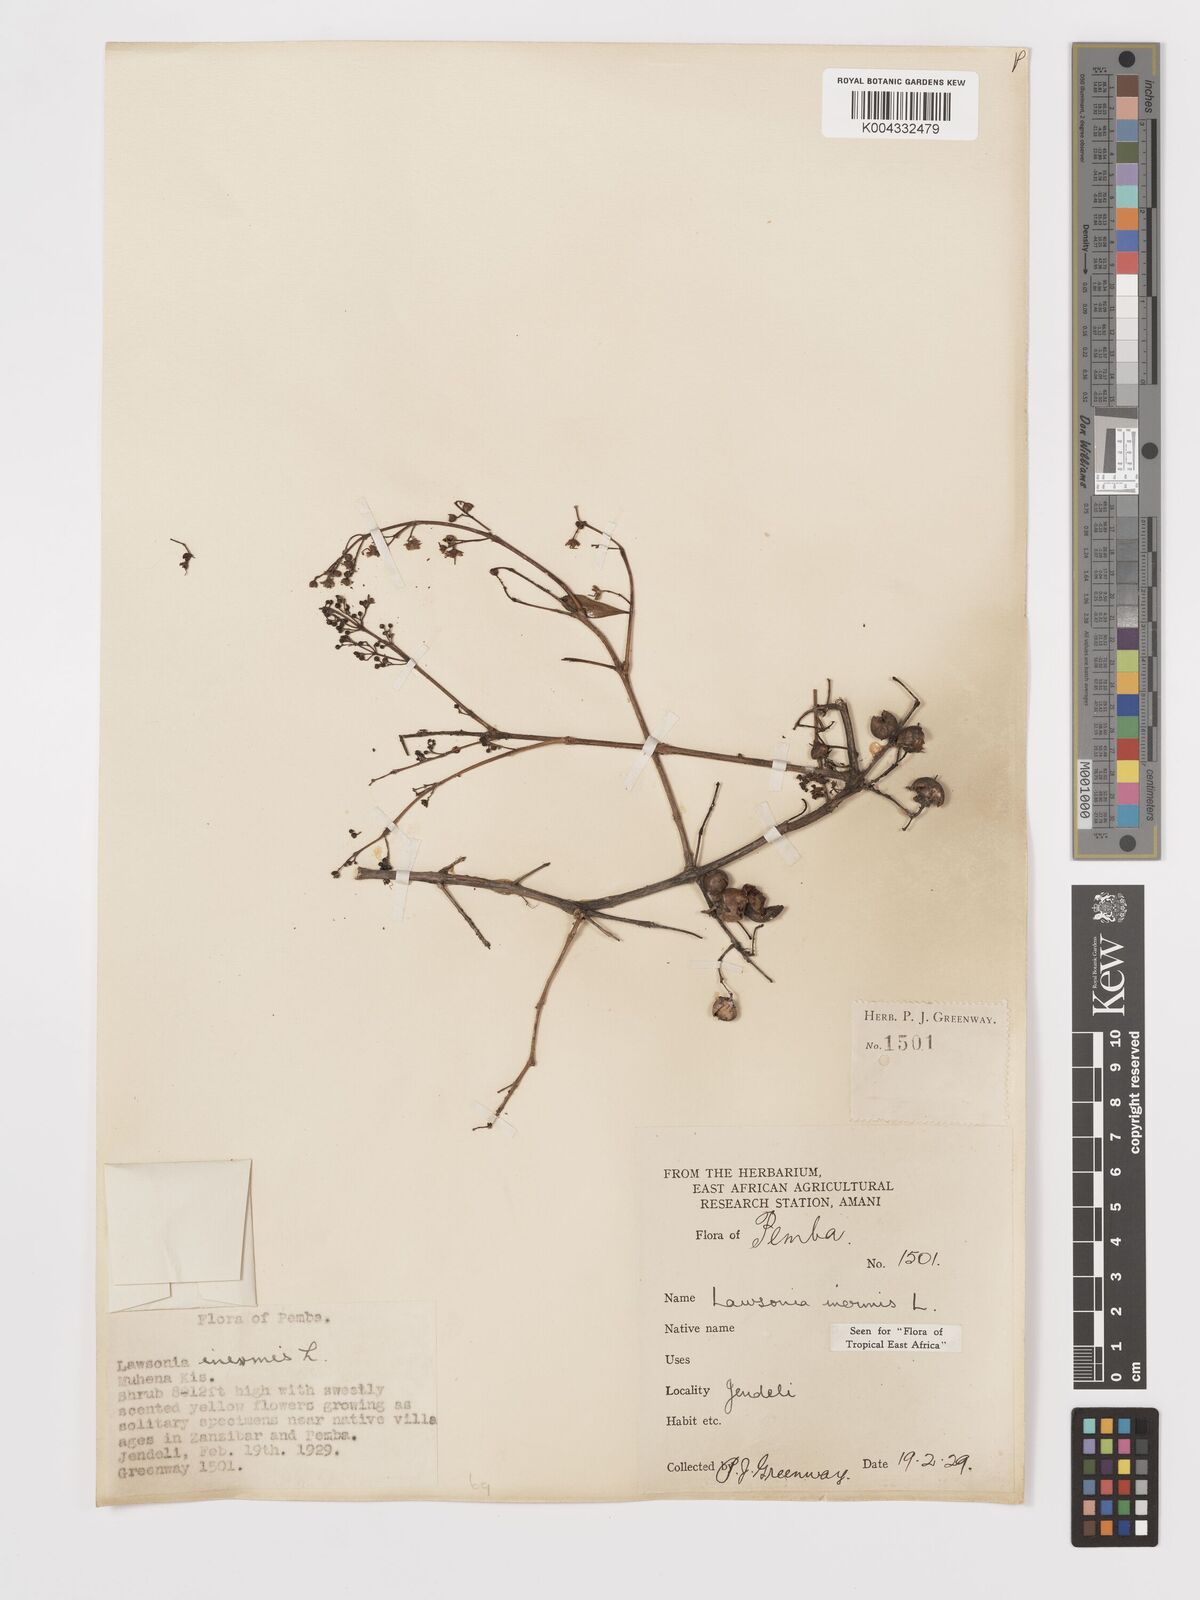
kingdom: Plantae
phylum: Tracheophyta
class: Magnoliopsida
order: Myrtales
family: Lythraceae
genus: Lawsonia
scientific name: Lawsonia inermis
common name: Henna
